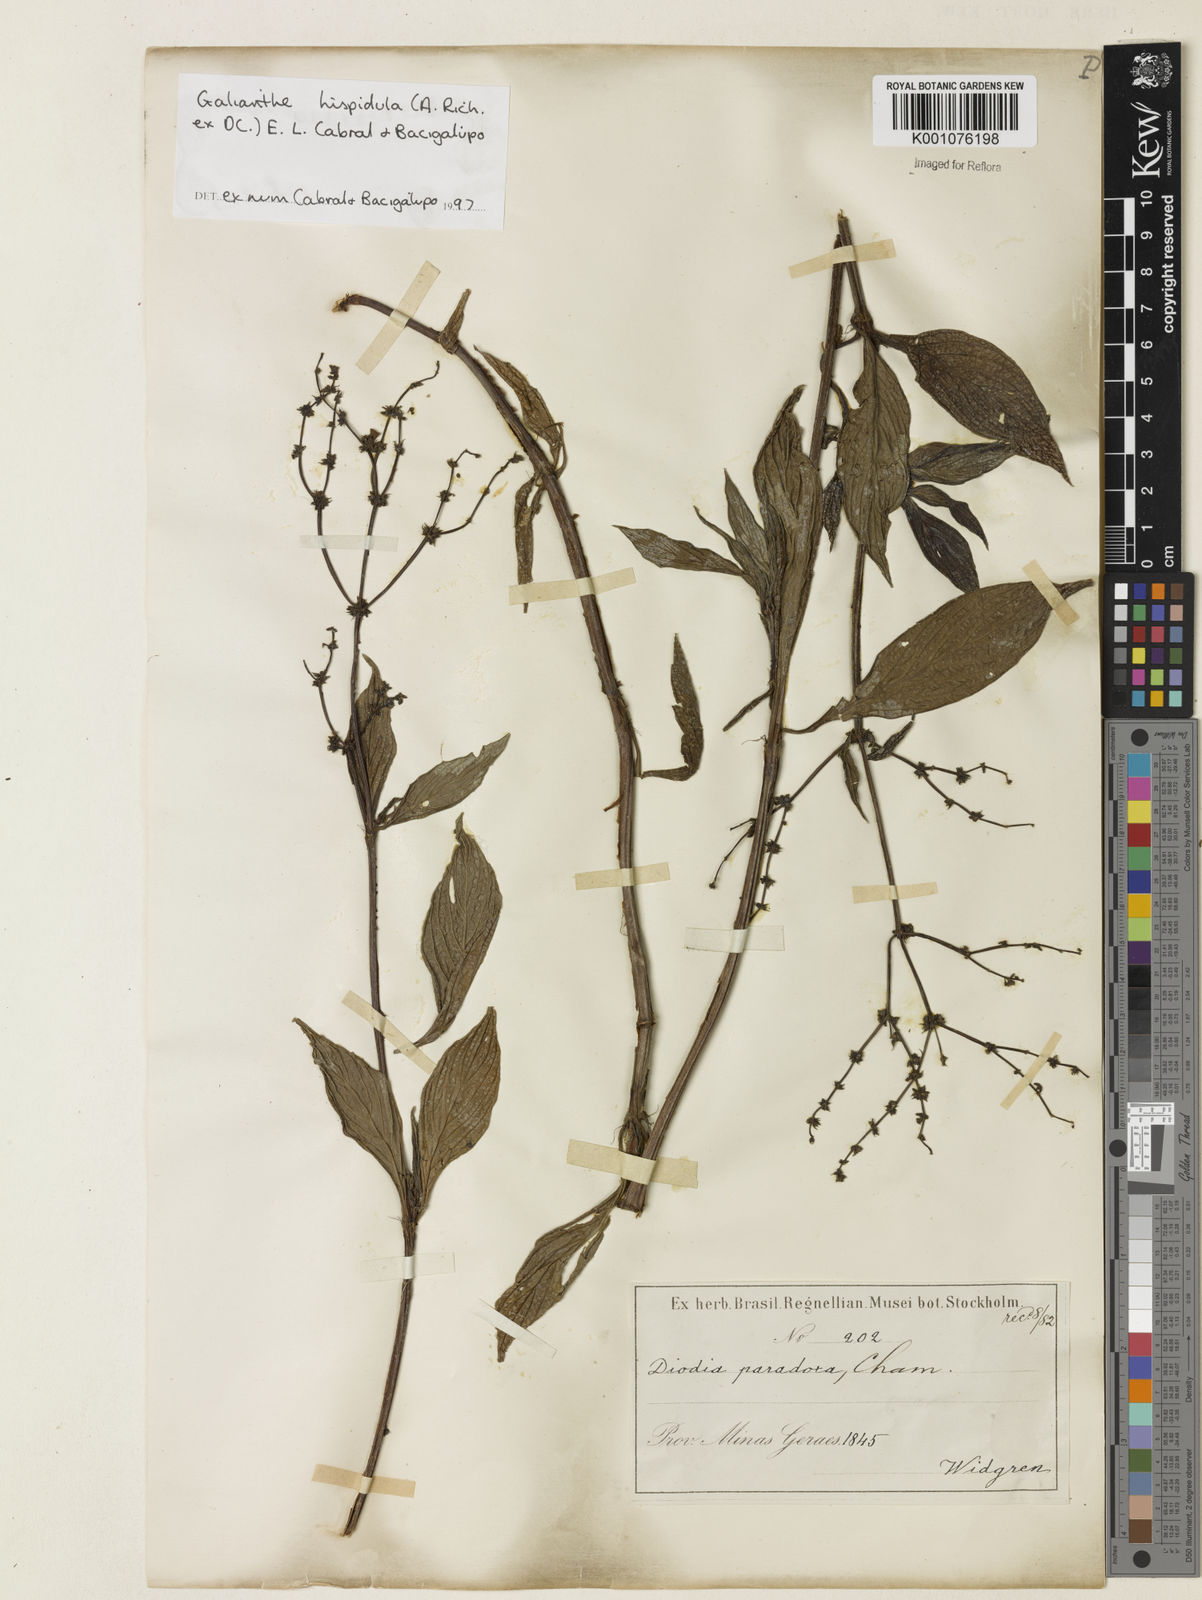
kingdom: Plantae
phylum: Tracheophyta
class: Magnoliopsida
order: Gentianales
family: Rubiaceae
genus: Spermacoce
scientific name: Spermacoce
